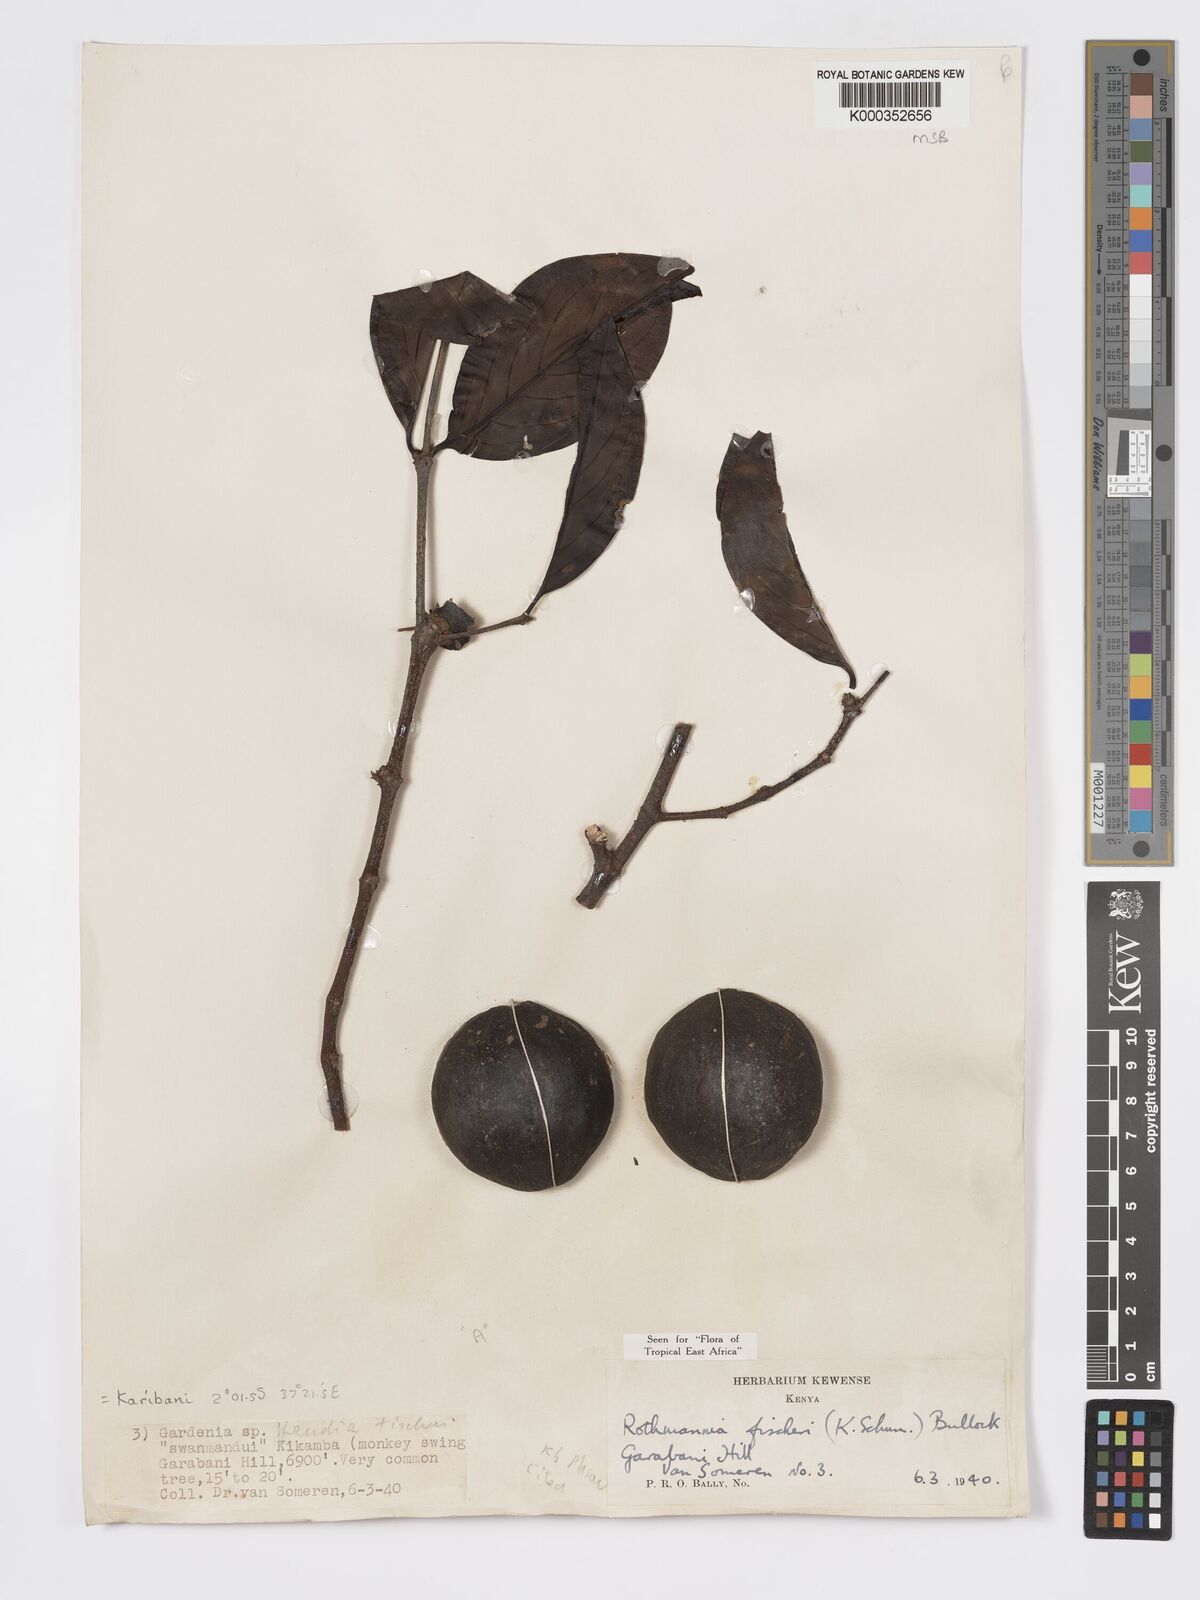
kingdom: Plantae
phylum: Tracheophyta
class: Magnoliopsida
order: Gentianales
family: Rubiaceae
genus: Rothmannia
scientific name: Rothmannia fischeri
